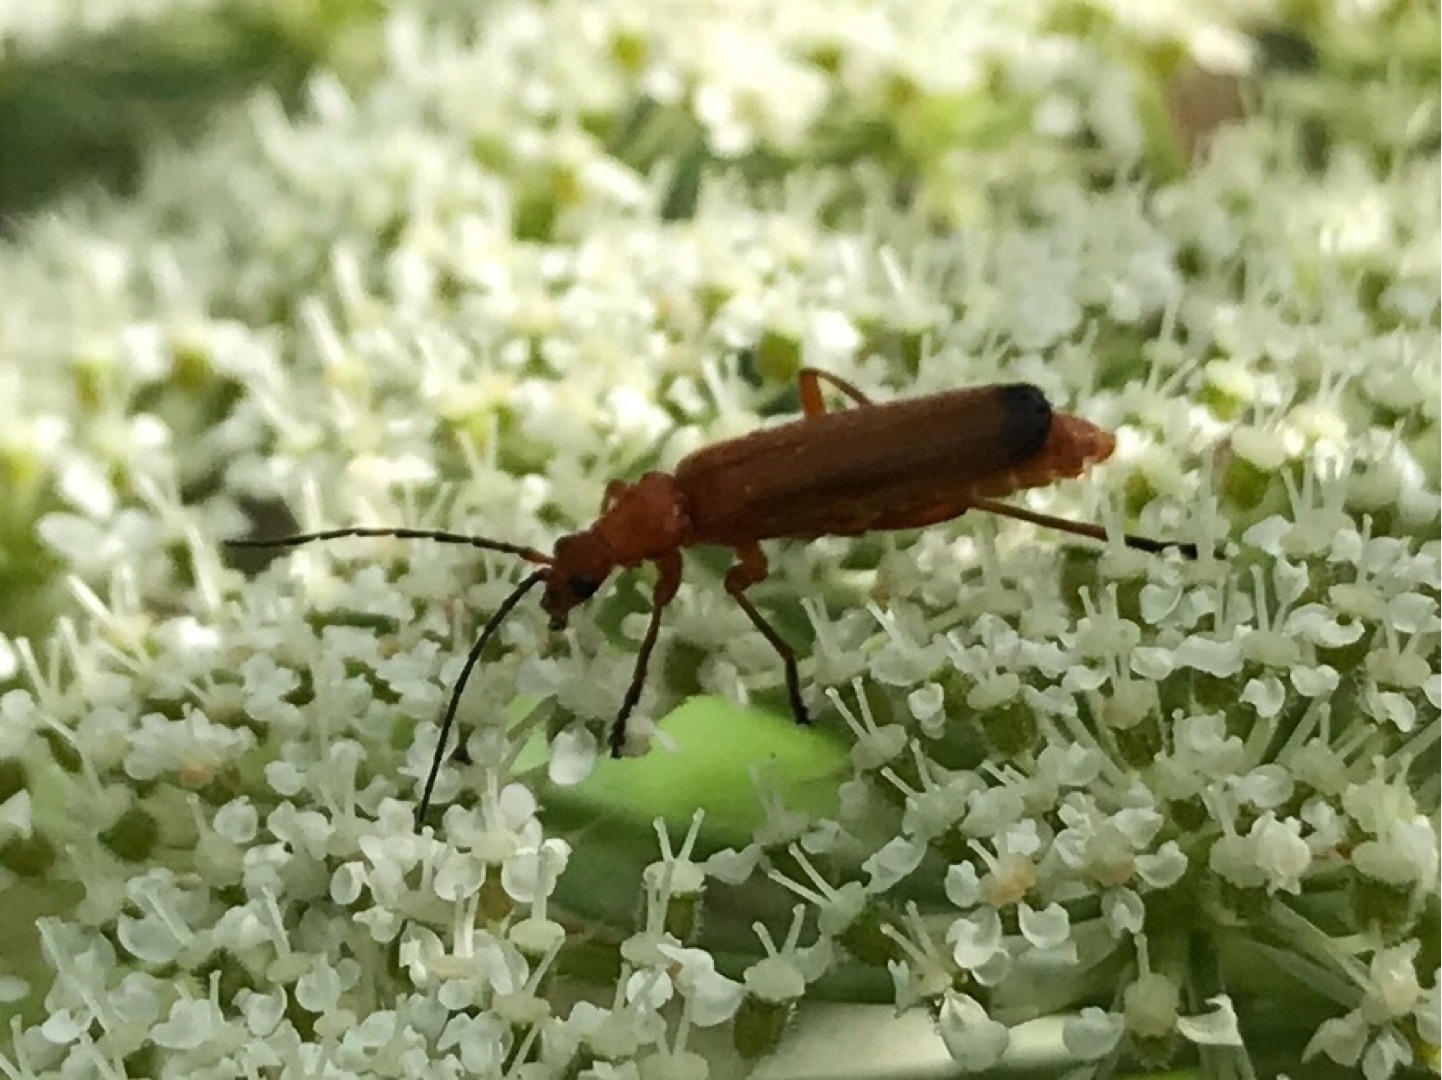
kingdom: Animalia
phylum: Arthropoda
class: Insecta
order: Coleoptera
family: Cantharidae
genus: Rhagonycha
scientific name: Rhagonycha fulva
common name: Præstebille
